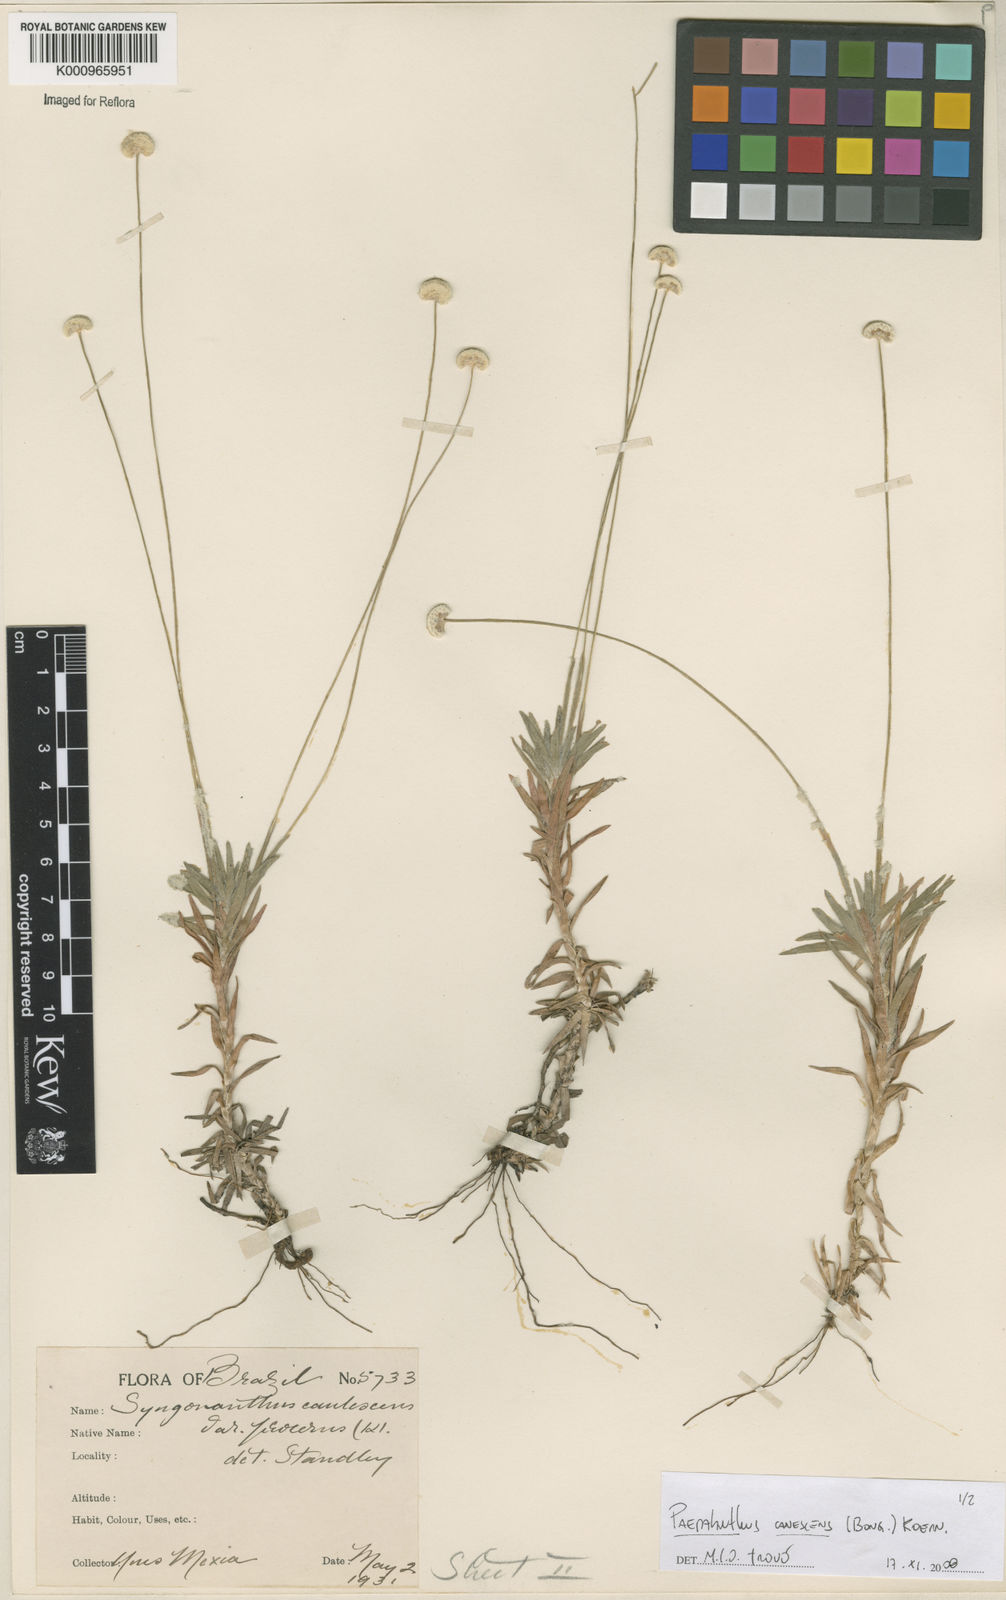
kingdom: Plantae
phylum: Tracheophyta
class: Liliopsida
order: Poales
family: Eriocaulaceae
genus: Paepalanthus
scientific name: Paepalanthus
